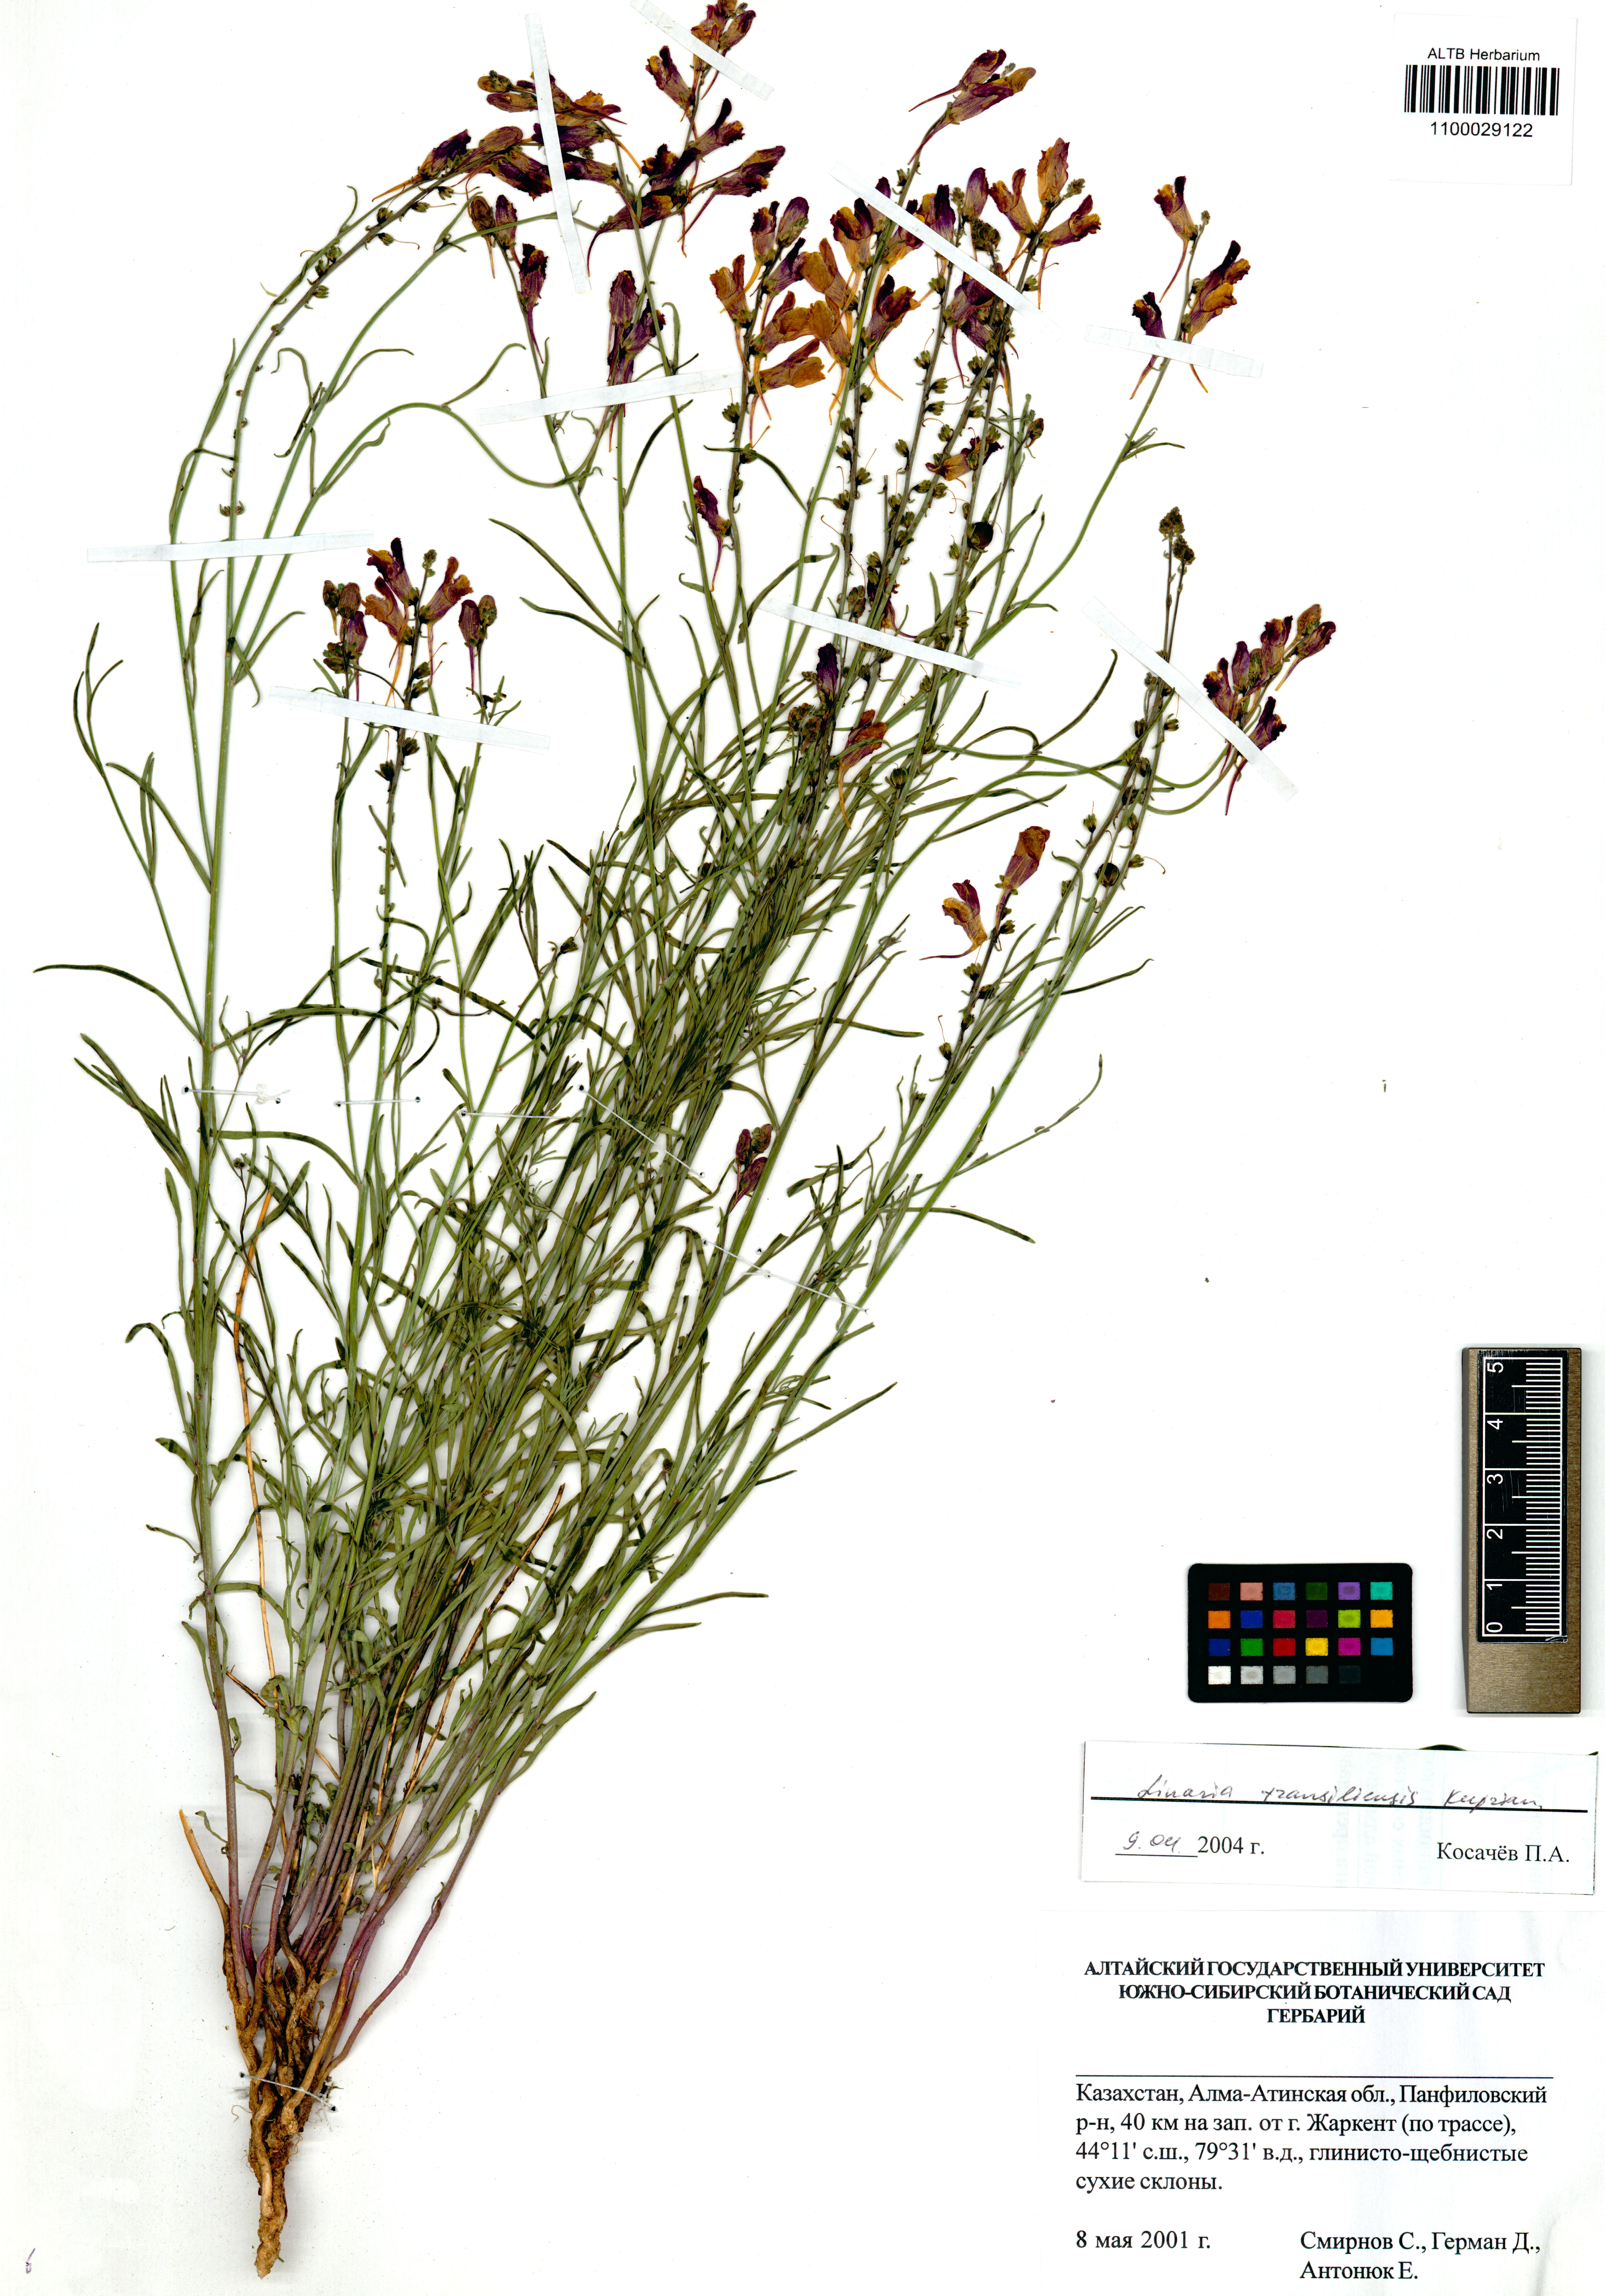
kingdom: Plantae
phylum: Tracheophyta
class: Magnoliopsida
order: Lamiales
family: Plantaginaceae
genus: Linaria
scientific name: Linaria bungei
